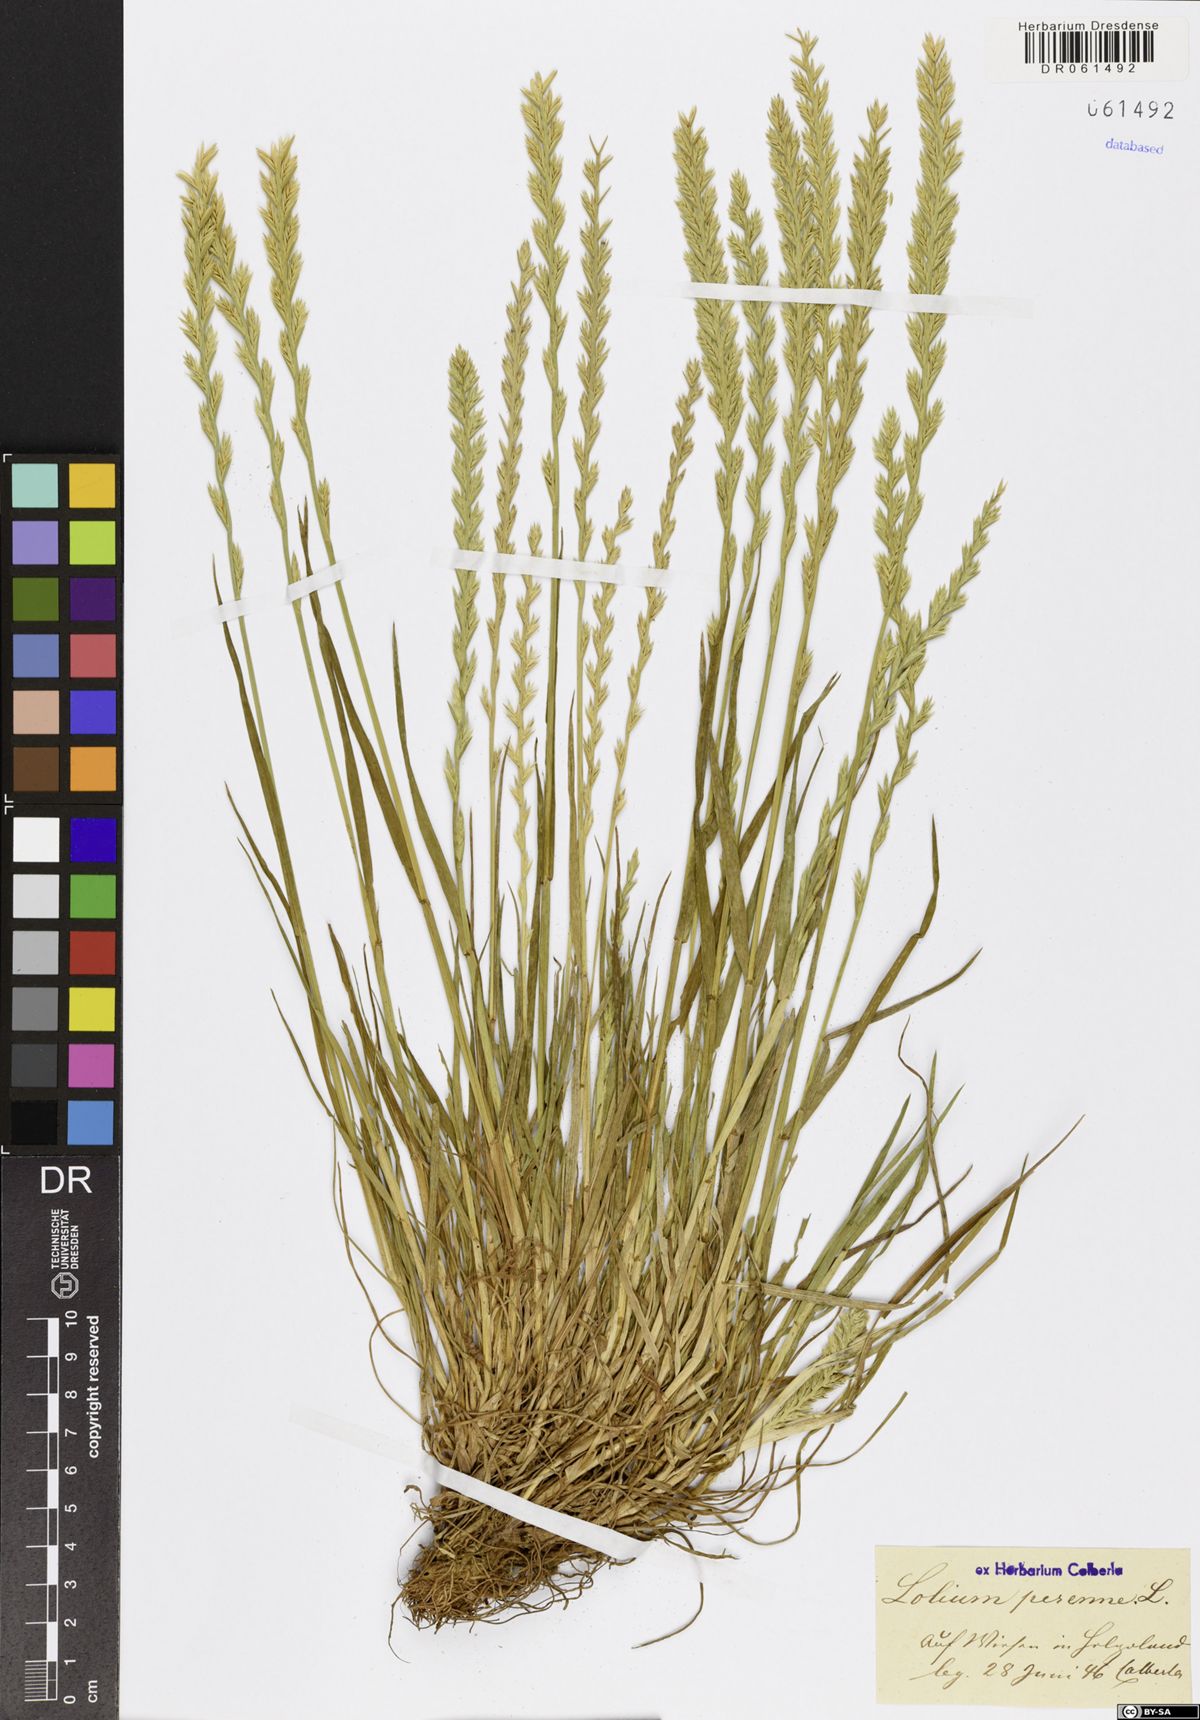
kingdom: Plantae
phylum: Tracheophyta
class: Liliopsida
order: Poales
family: Poaceae
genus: Lolium
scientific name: Lolium perenne
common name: Perennial ryegrass
